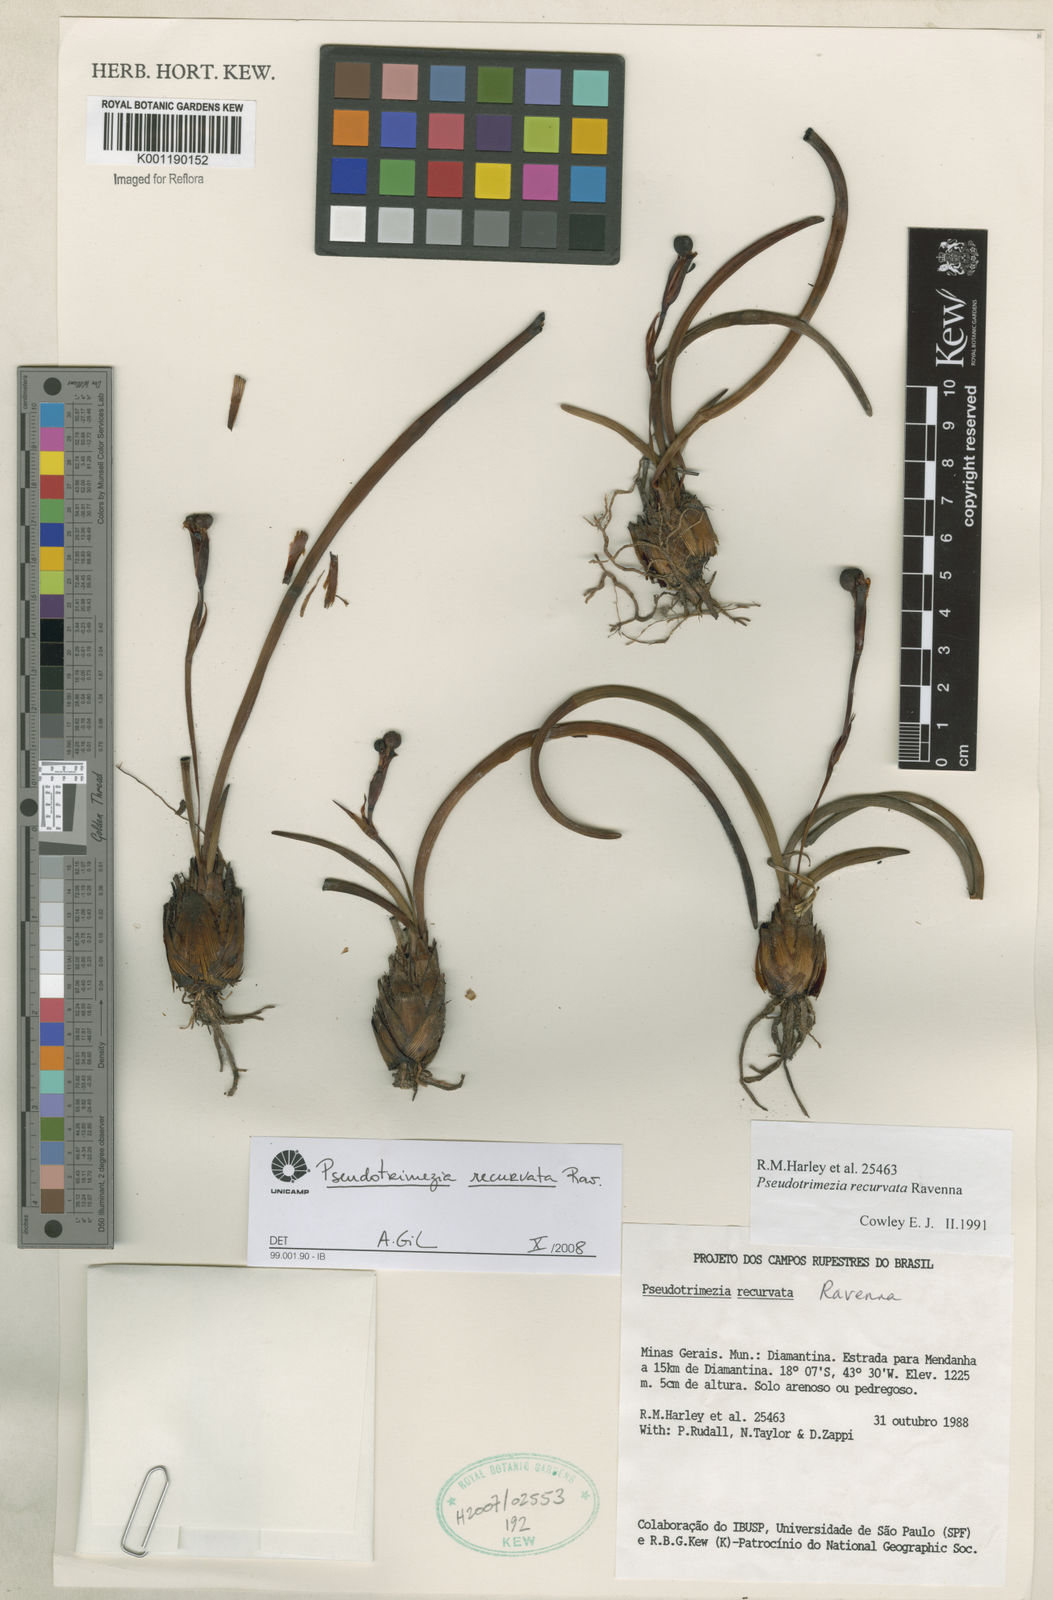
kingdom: Plantae
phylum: Tracheophyta
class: Liliopsida
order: Asparagales
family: Iridaceae
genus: Trimezia
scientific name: Trimezia recurvata
